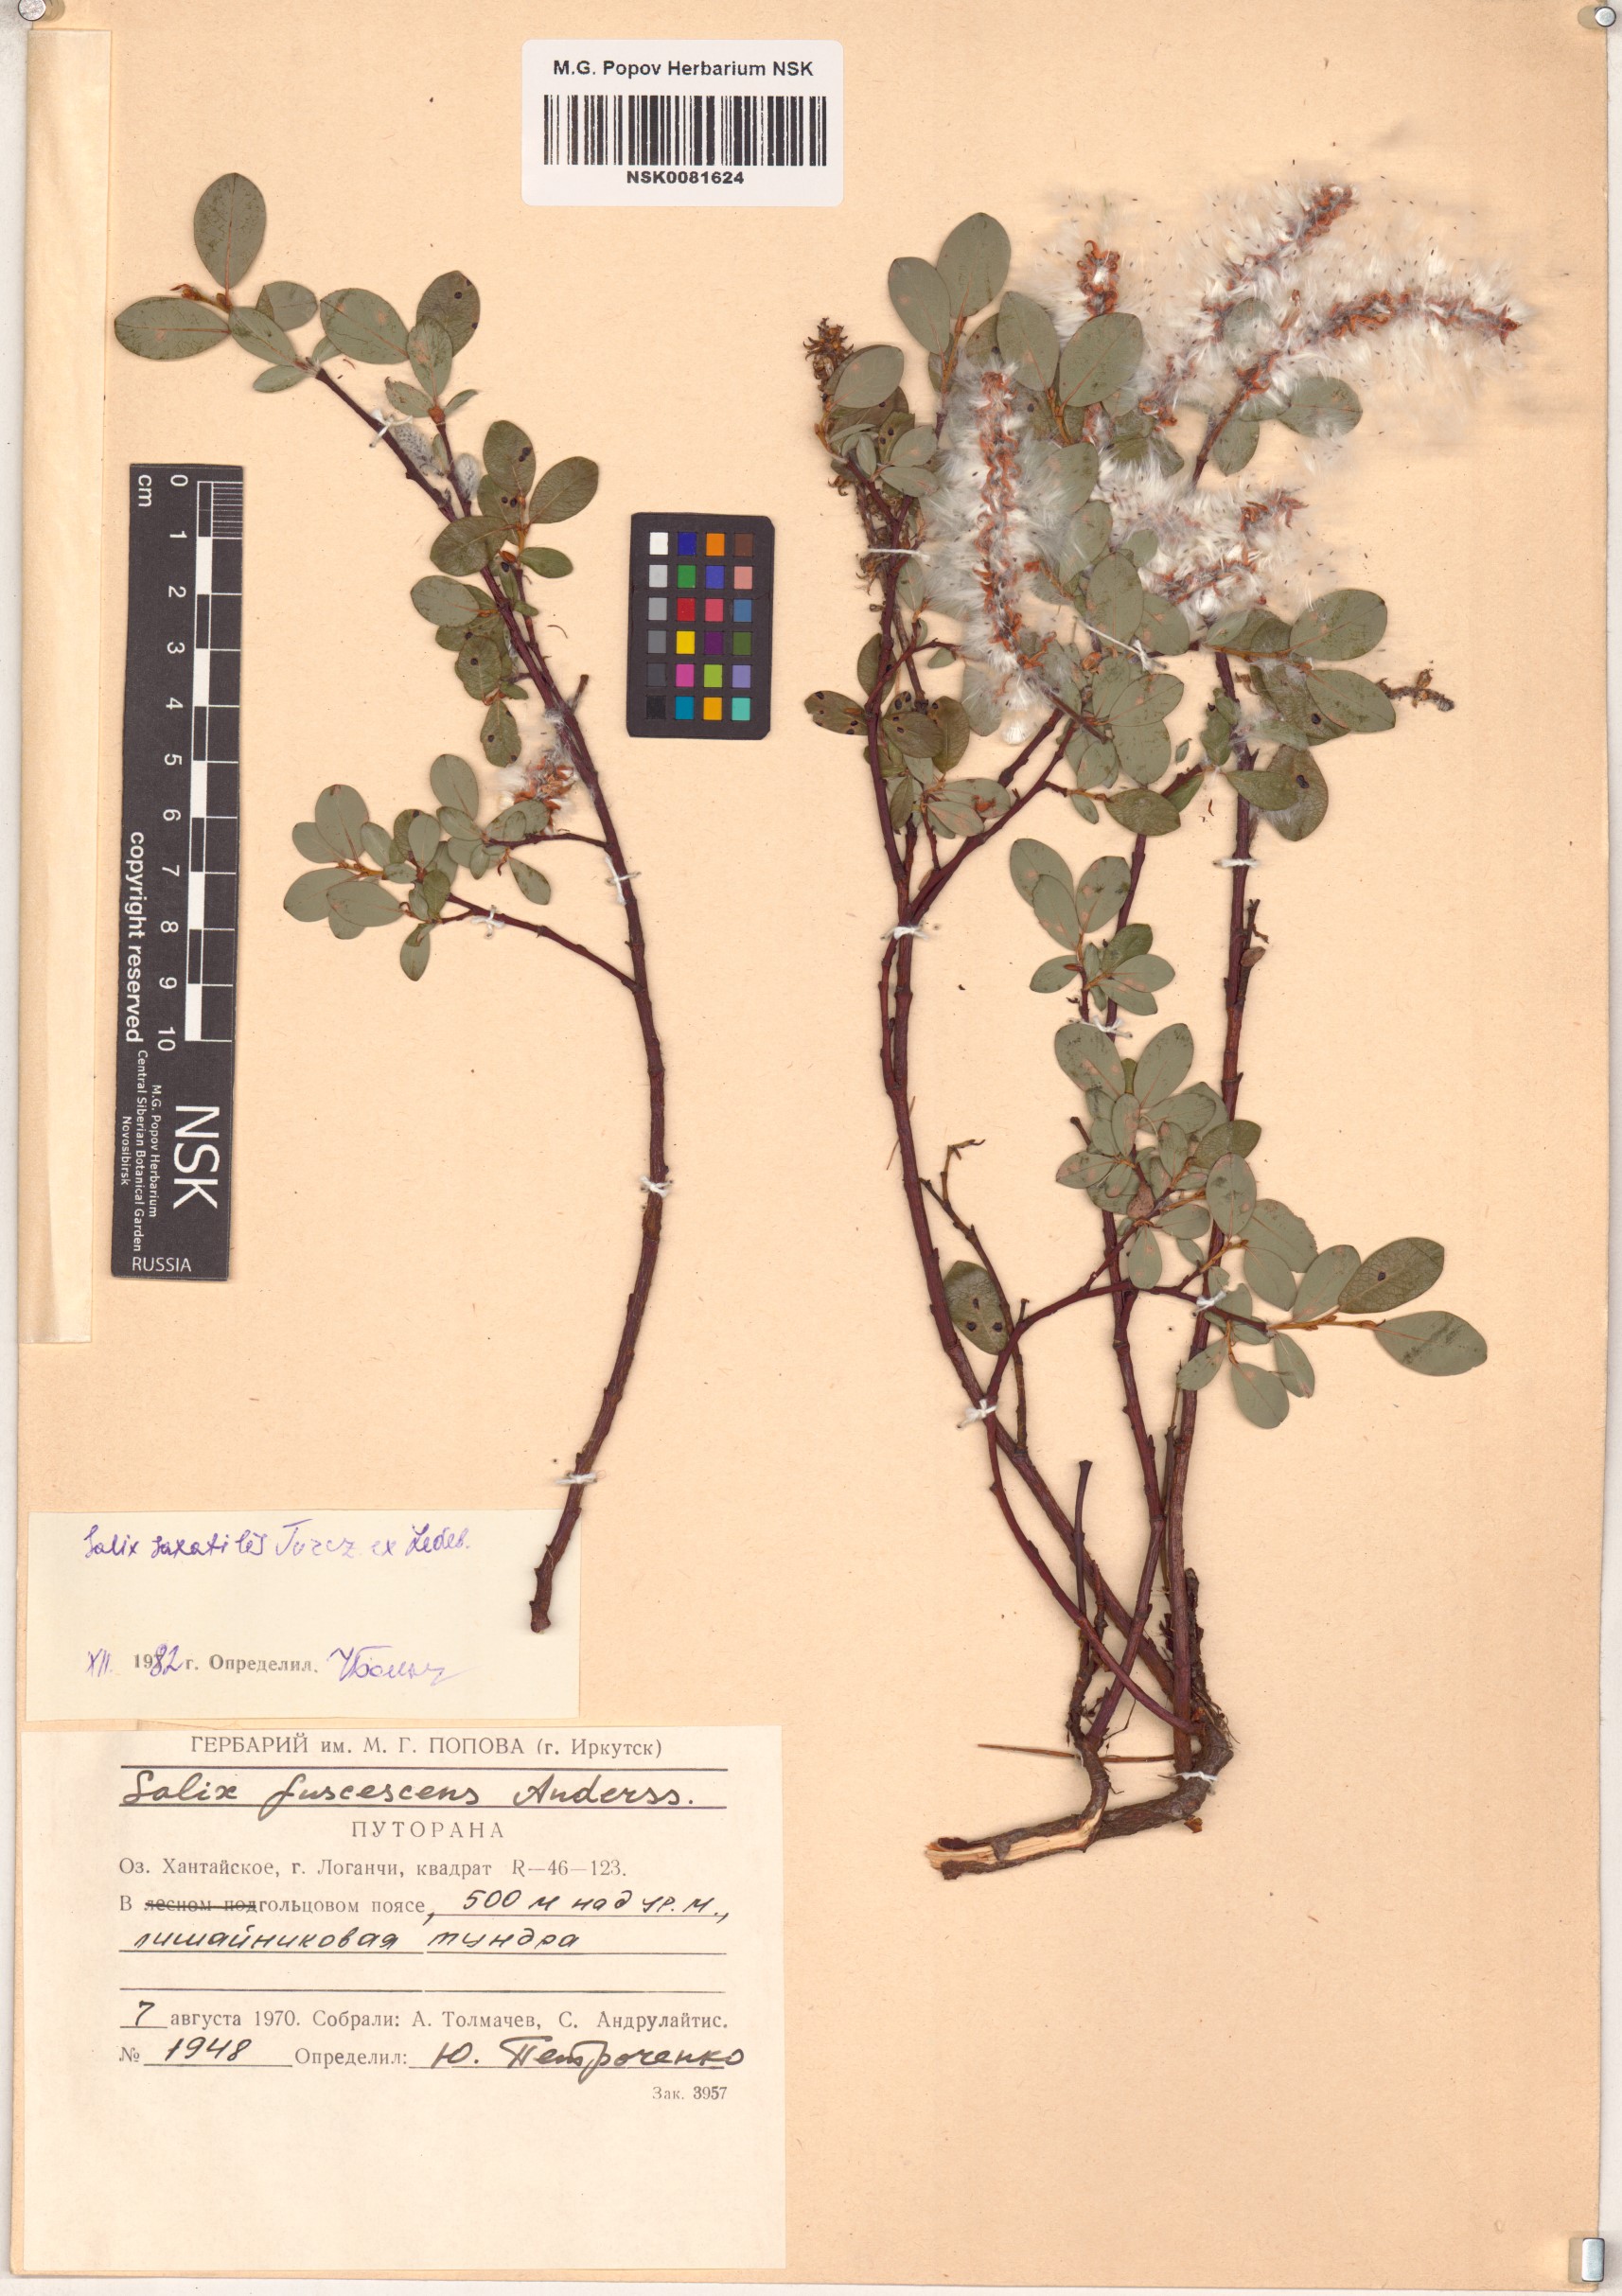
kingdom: Plantae
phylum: Tracheophyta
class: Magnoliopsida
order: Malpighiales
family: Salicaceae
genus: Salix
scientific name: Salix saxatilis
